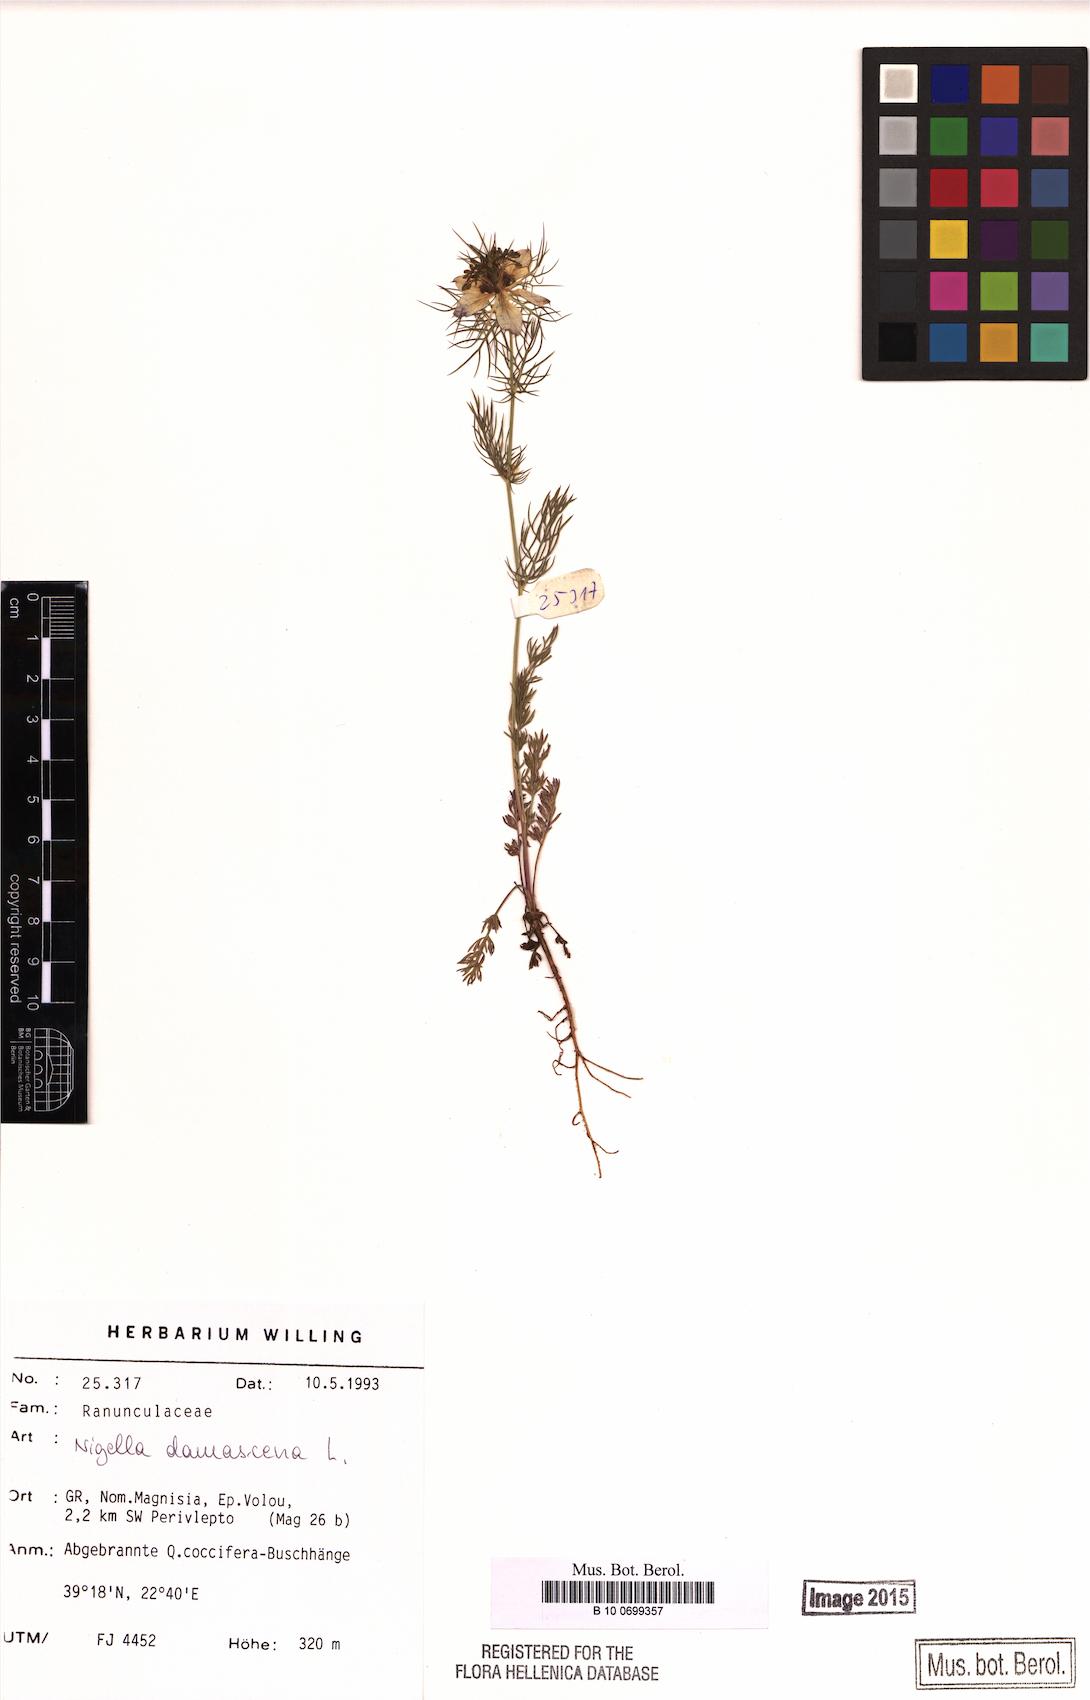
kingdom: Plantae
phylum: Tracheophyta
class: Magnoliopsida
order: Ranunculales
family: Ranunculaceae
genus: Nigella
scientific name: Nigella damascena
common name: Love-in-a-mist
